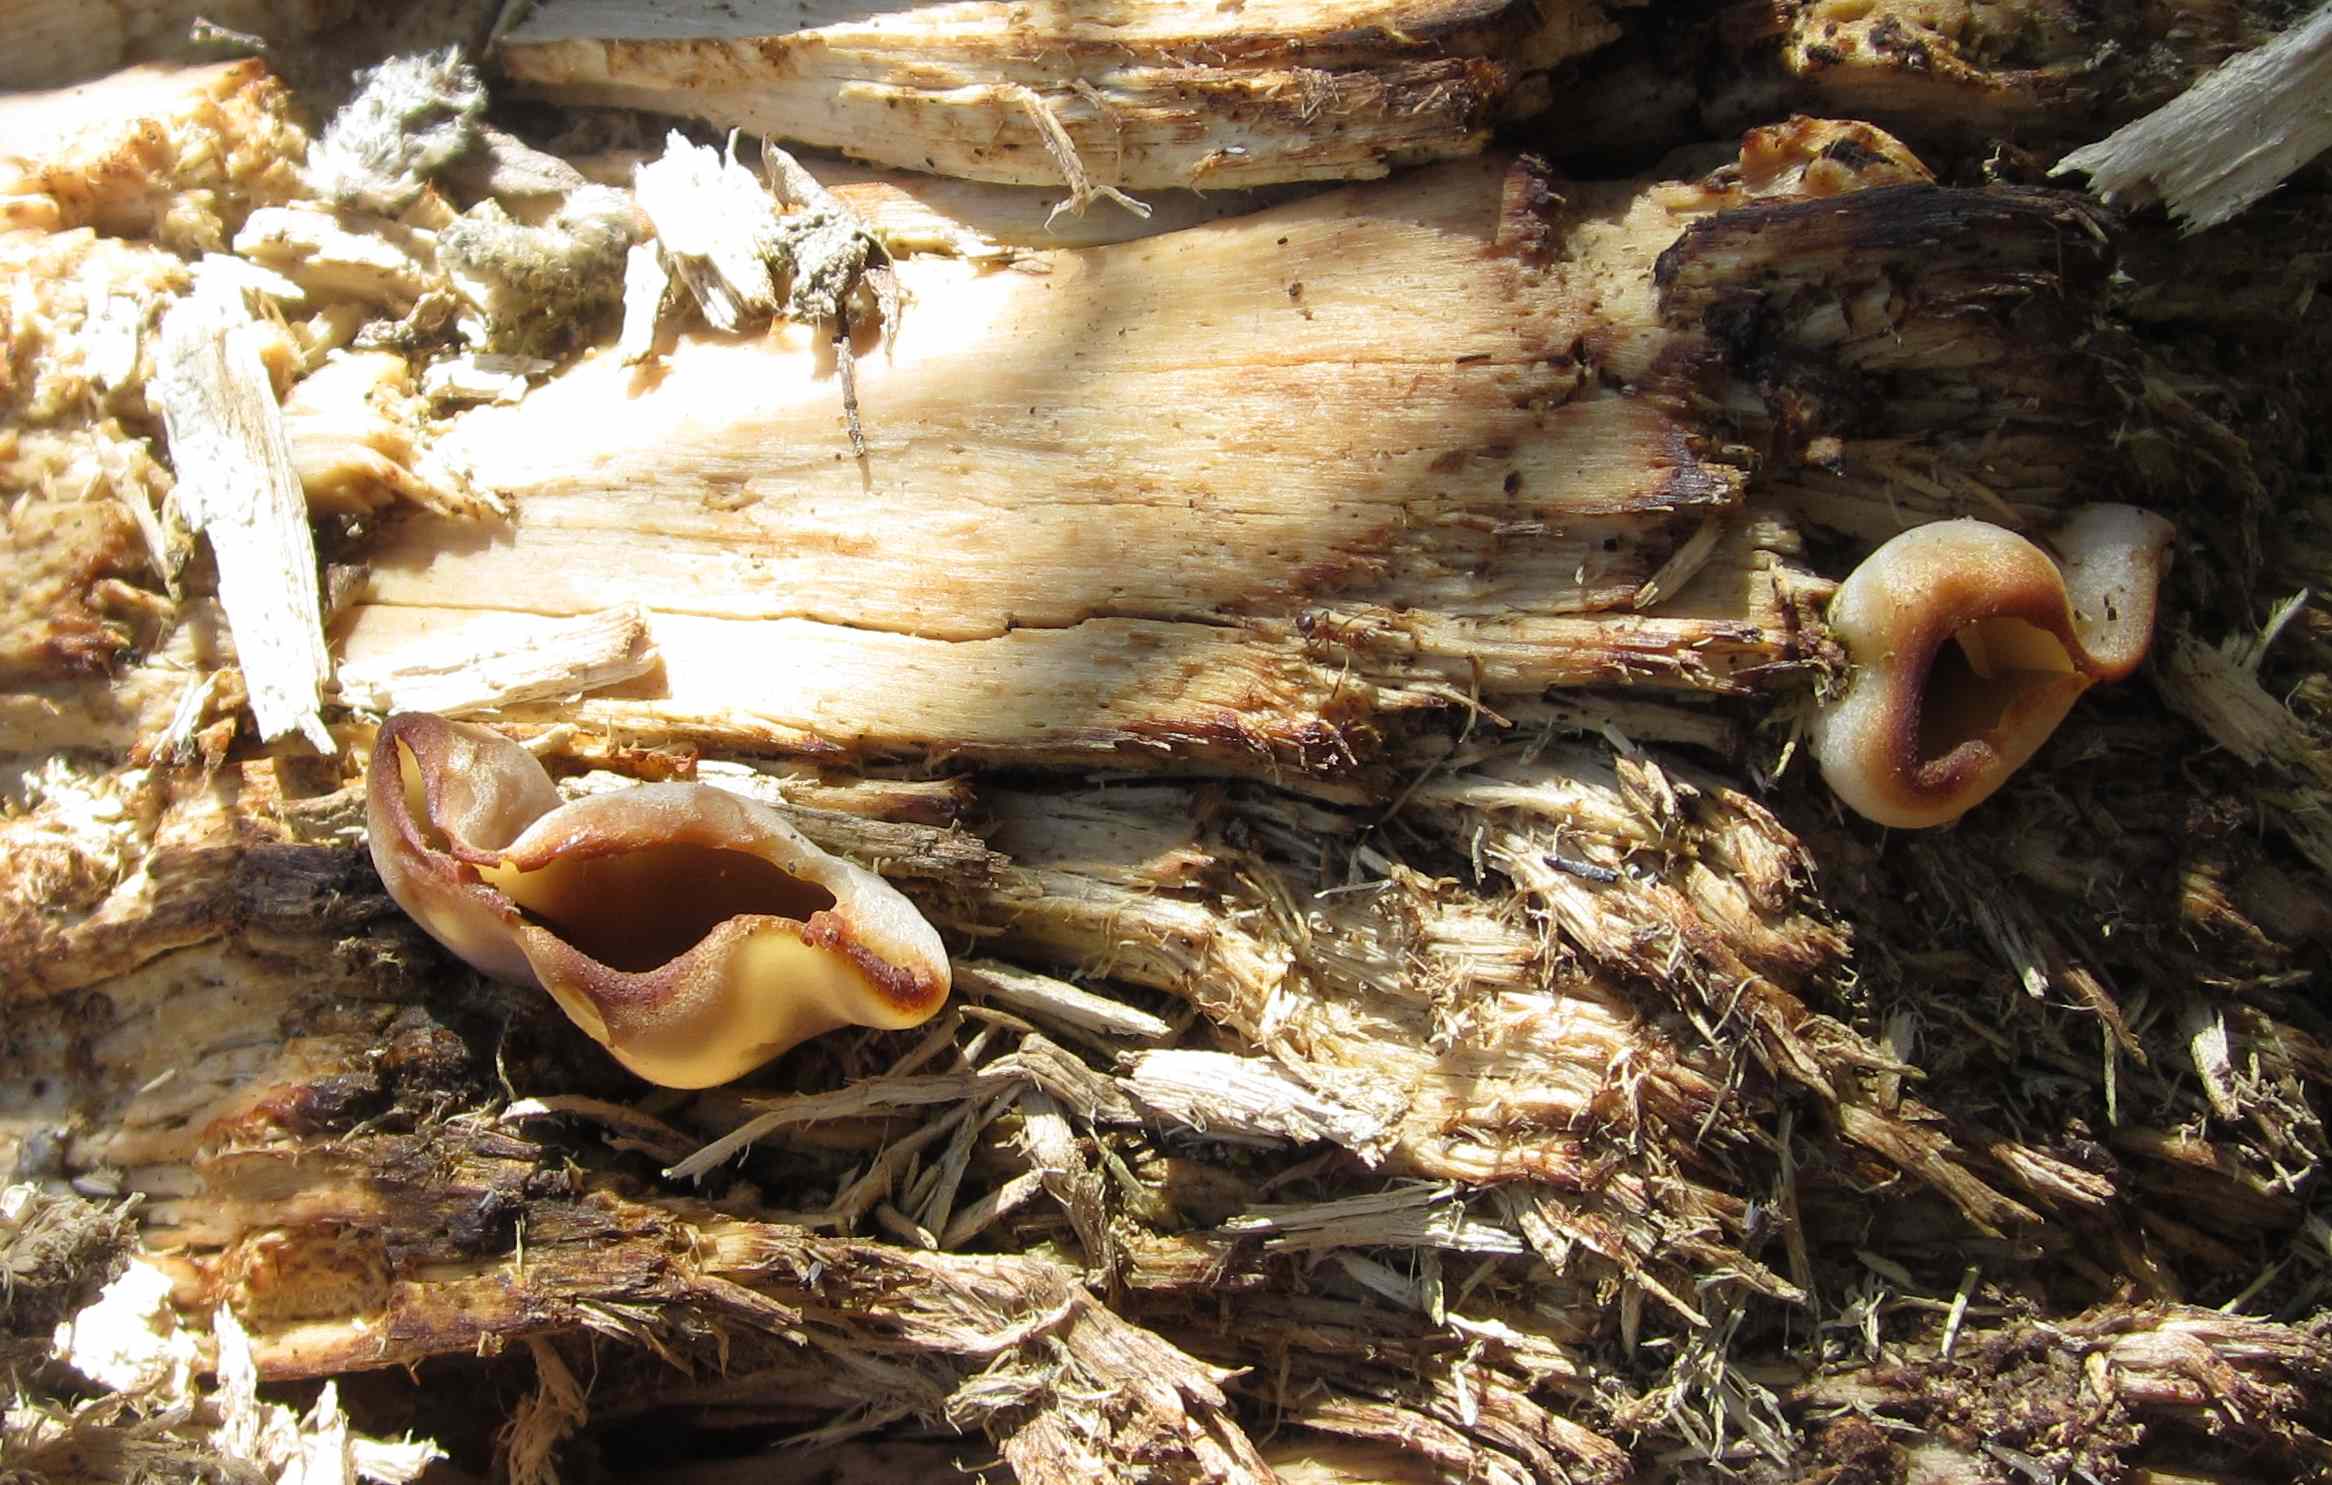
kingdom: Fungi
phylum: Ascomycota
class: Pezizomycetes
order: Pezizales
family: Pezizaceae
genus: Peziza
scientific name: Peziza varia
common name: Ved-bægersvamp
